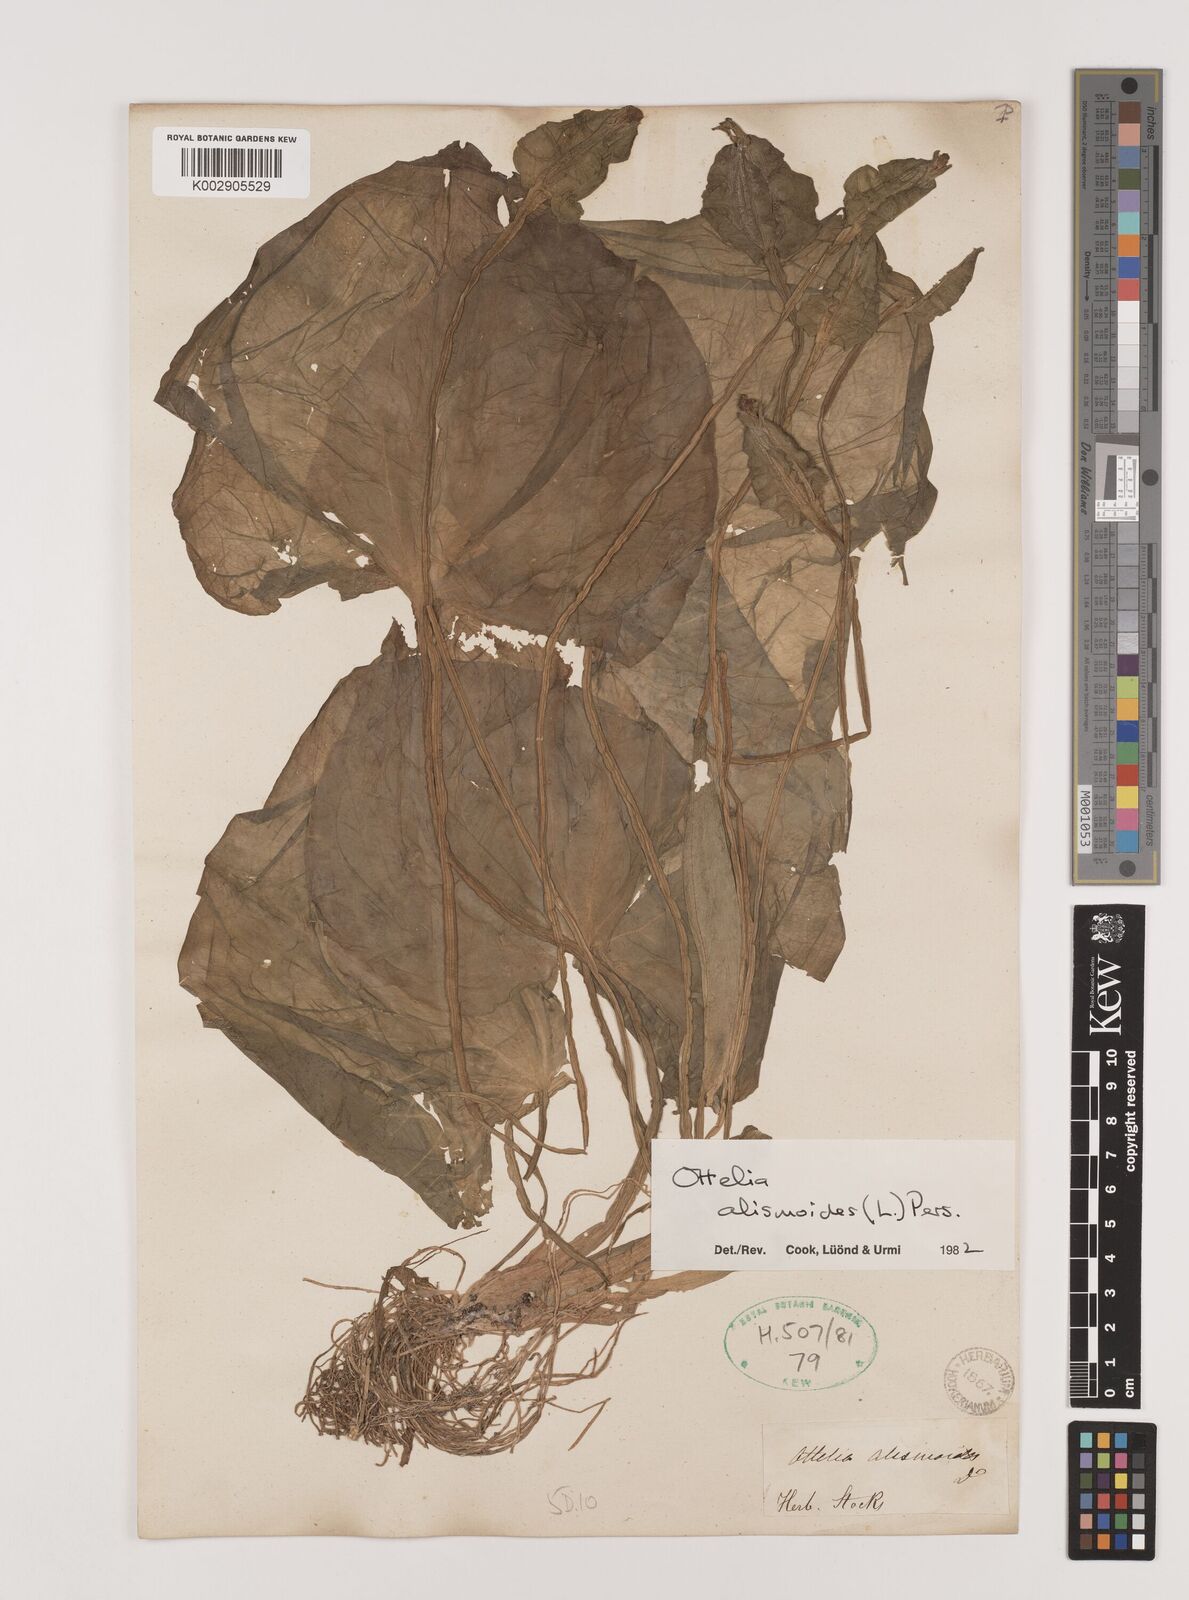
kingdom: Plantae
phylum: Tracheophyta
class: Liliopsida
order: Alismatales
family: Hydrocharitaceae
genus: Ottelia
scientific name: Ottelia alismoides
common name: Duck-lettuce
